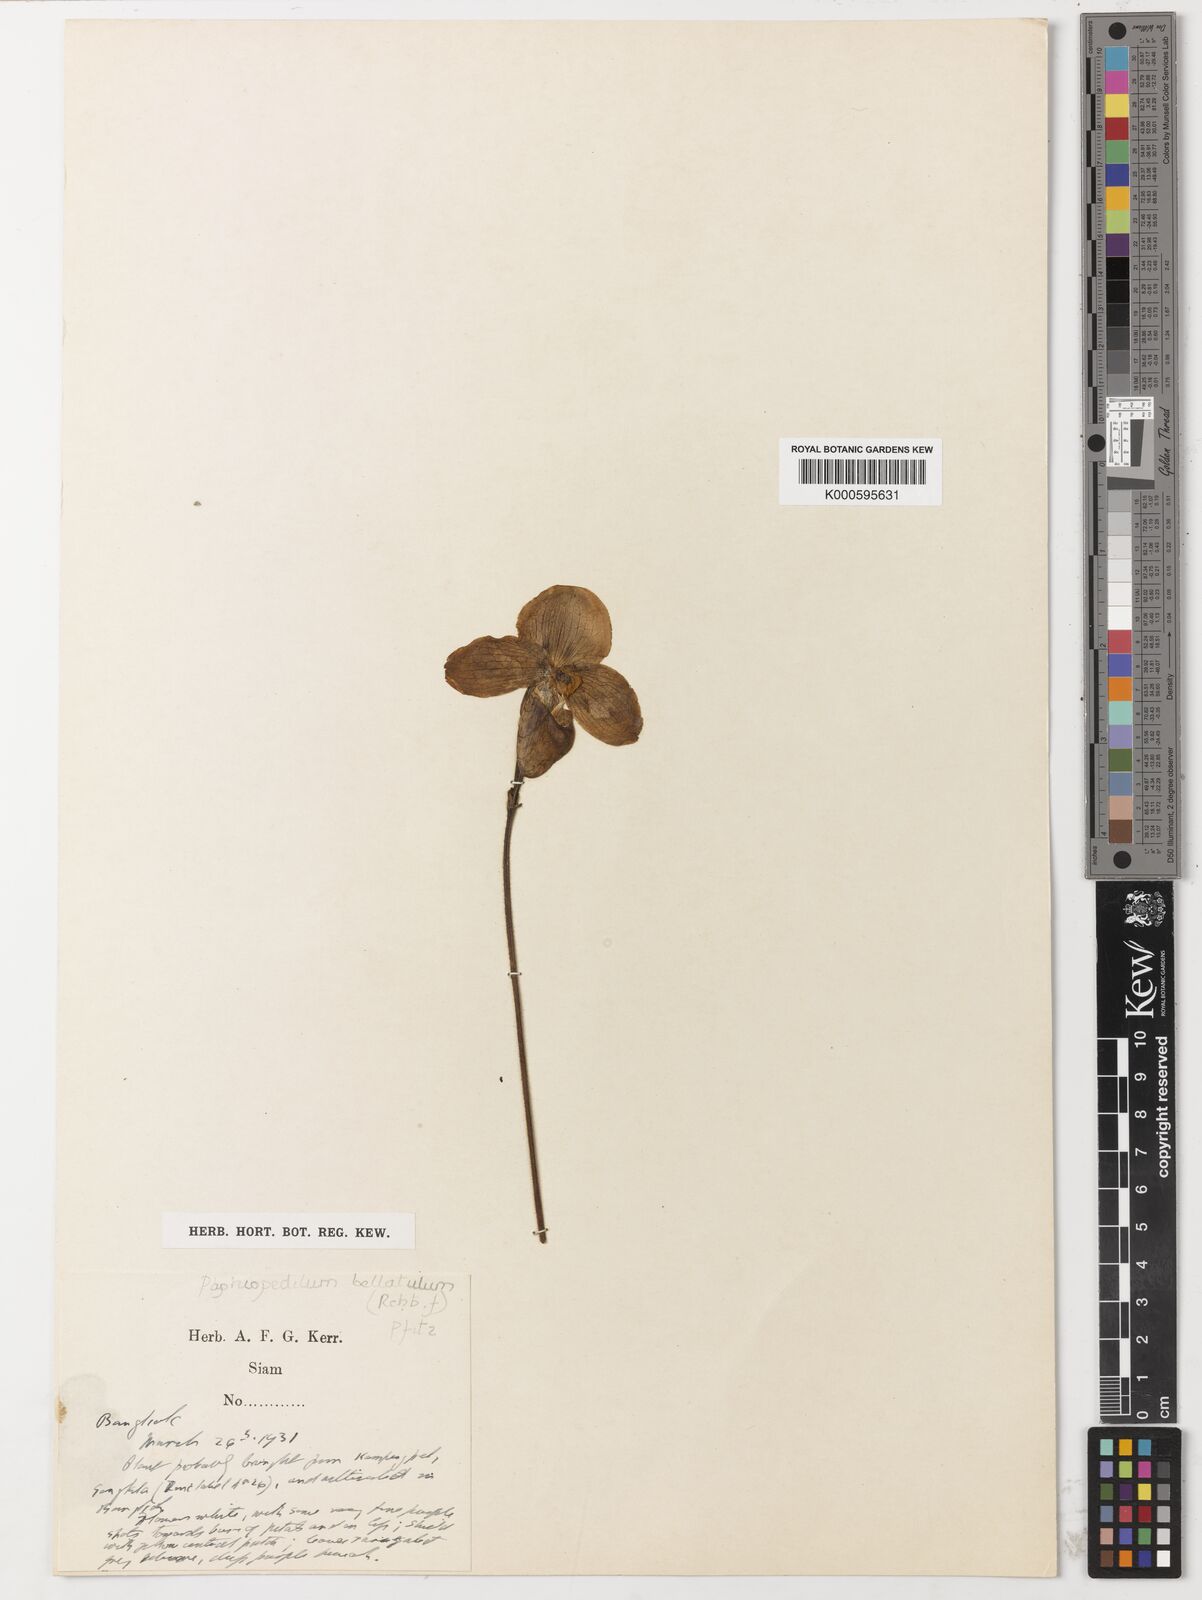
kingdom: Plantae
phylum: Tracheophyta
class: Liliopsida
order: Asparagales
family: Orchidaceae
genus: Paphiopedilum
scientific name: Paphiopedilum niveum
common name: Snow-white paphiopedilum
